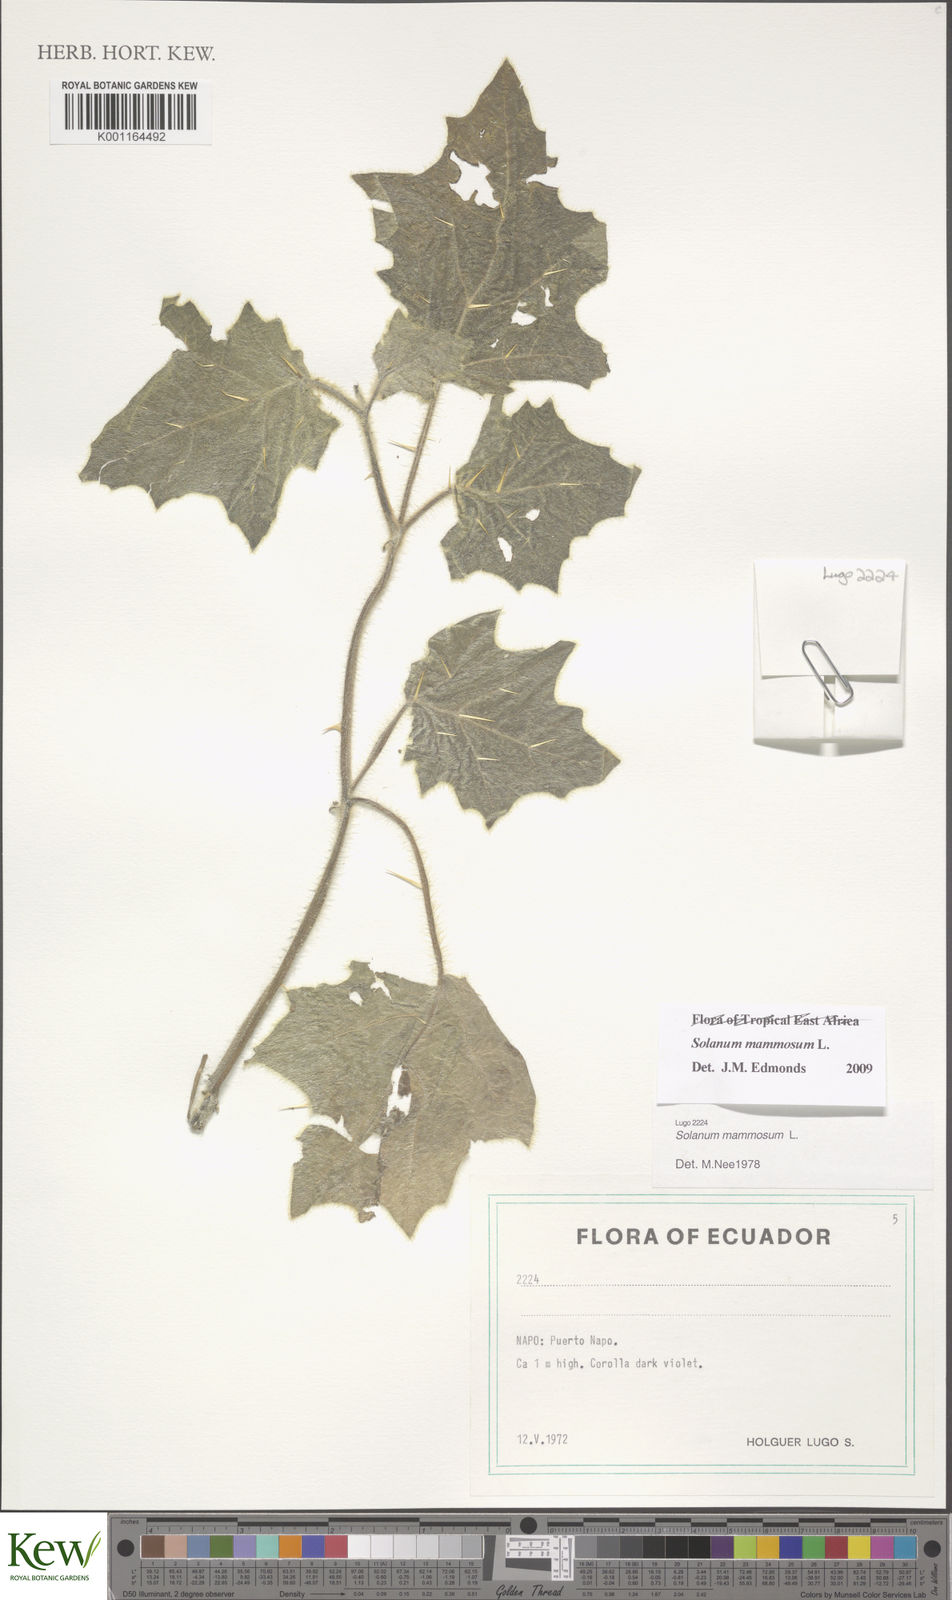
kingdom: Plantae
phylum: Tracheophyta
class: Magnoliopsida
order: Solanales
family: Solanaceae
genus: Solanum
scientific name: Solanum mammosum
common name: Nipple fruit
